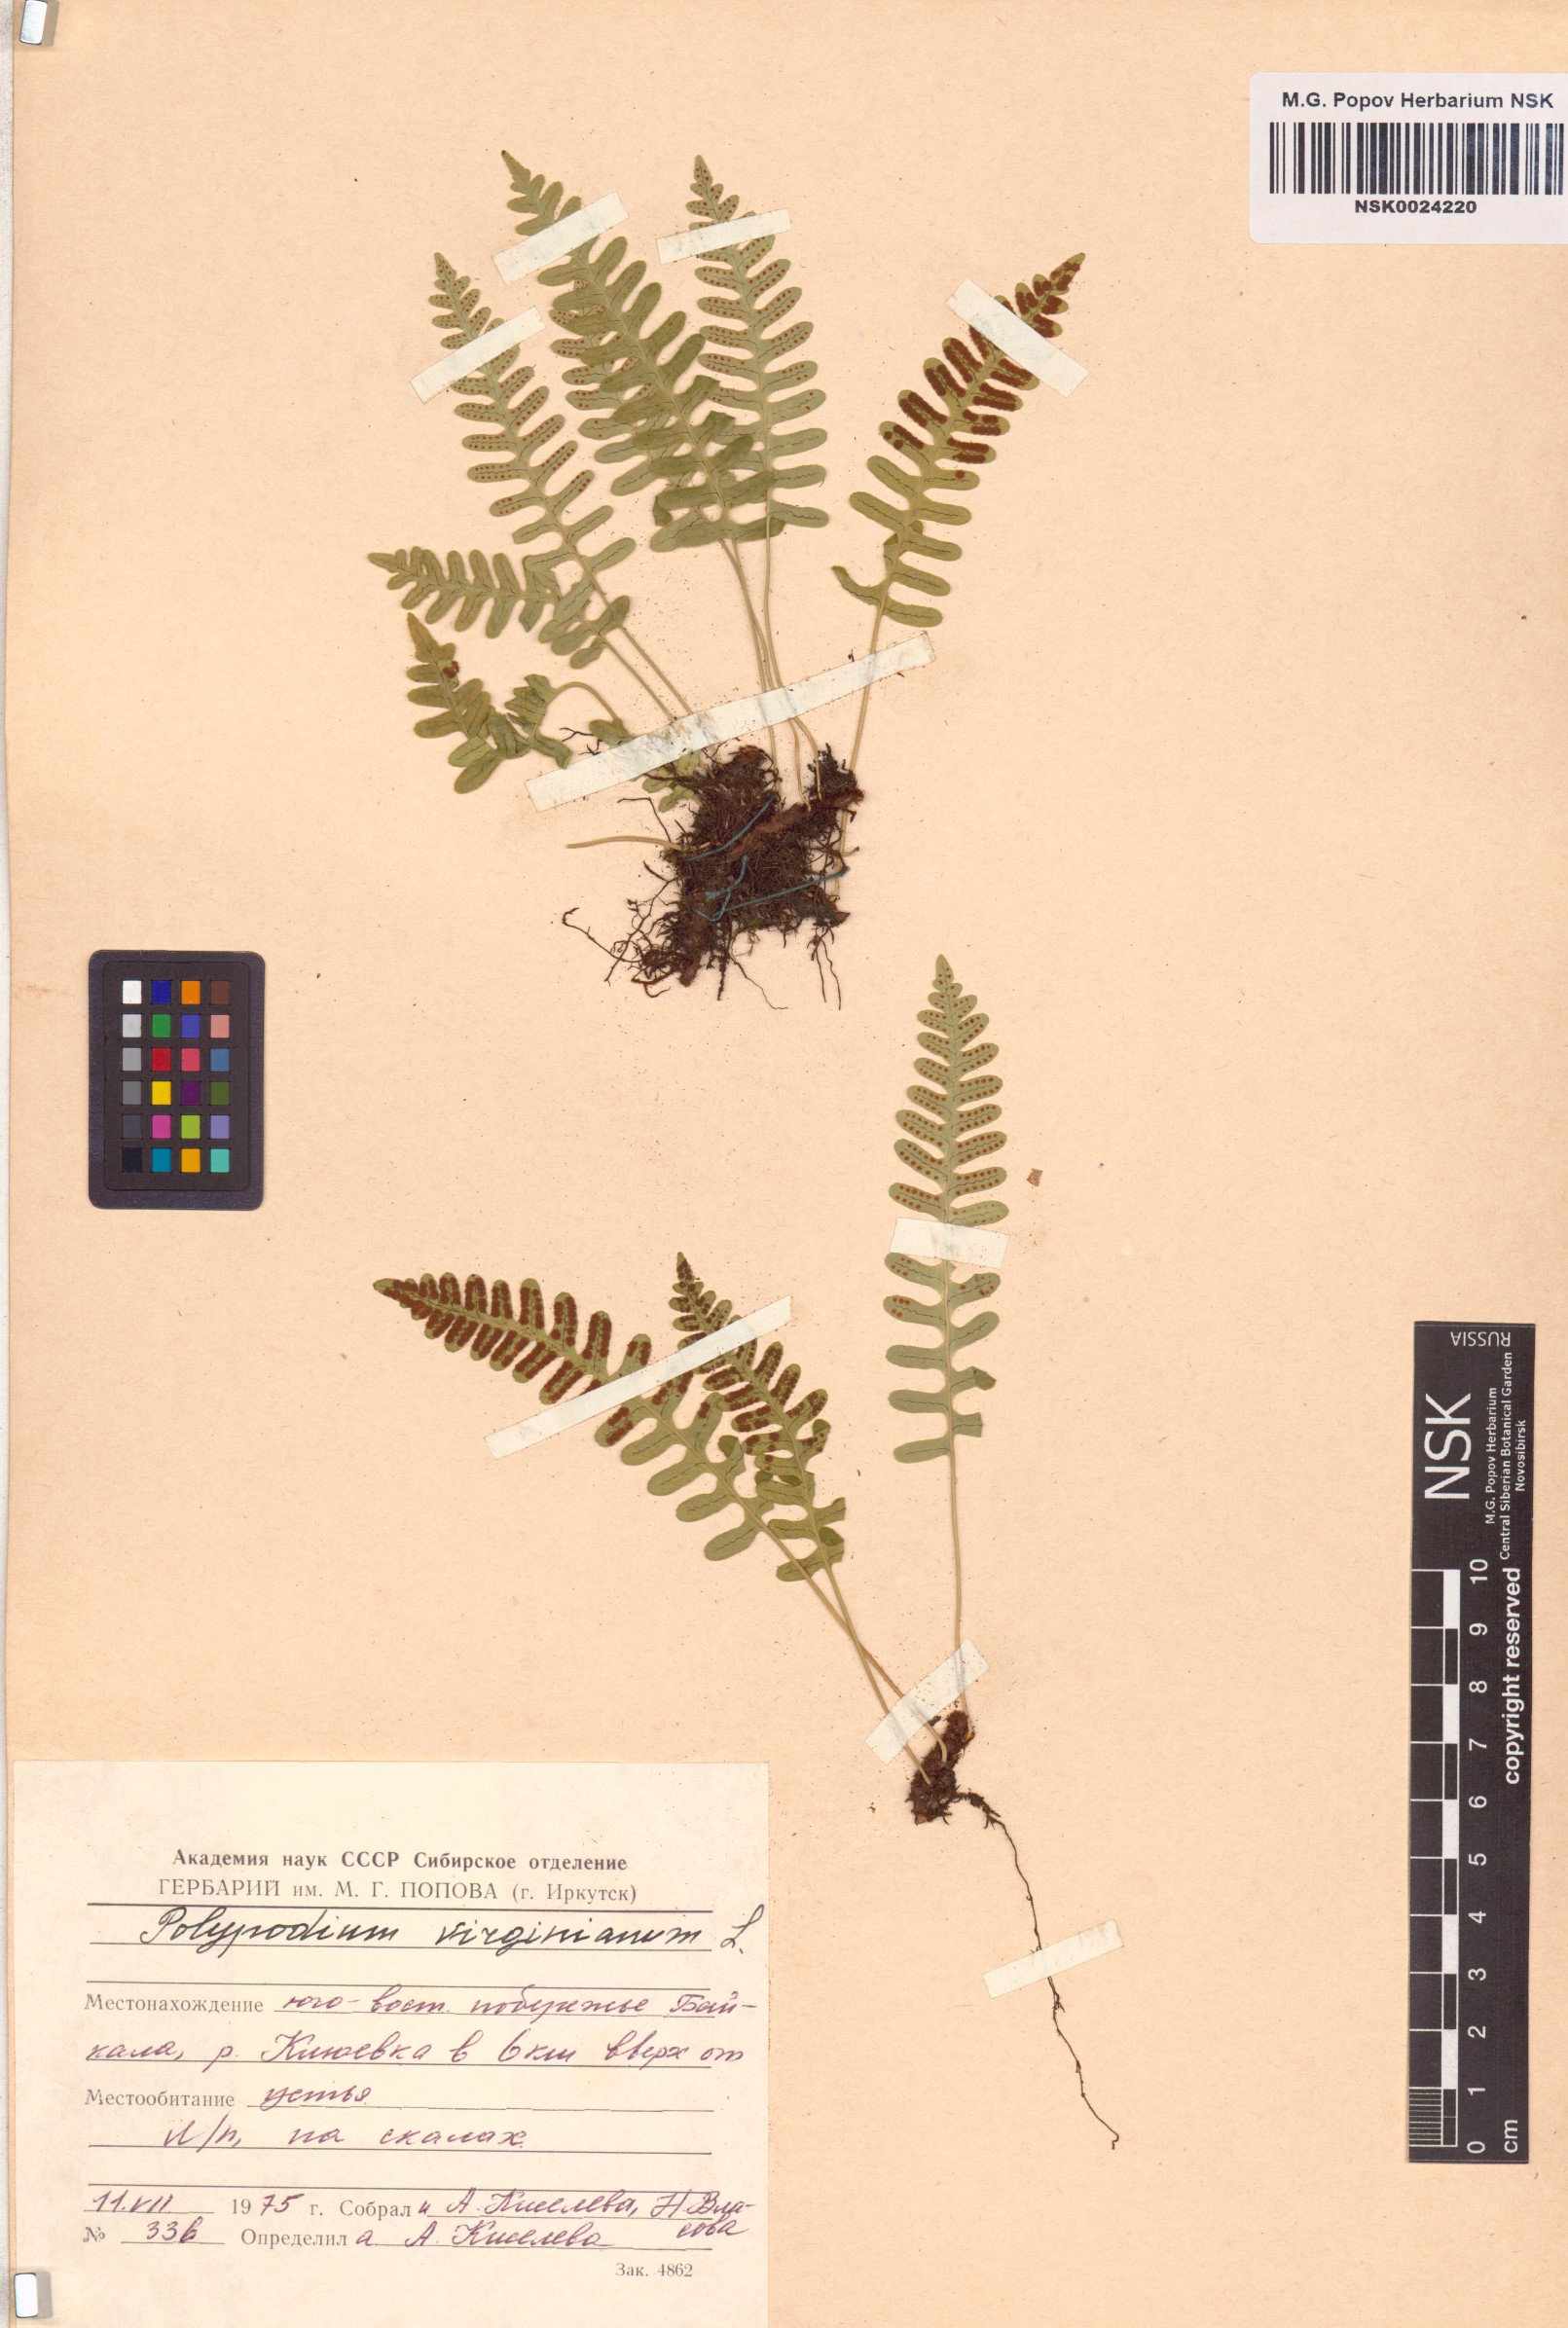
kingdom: Plantae
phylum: Tracheophyta
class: Polypodiopsida
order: Polypodiales
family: Polypodiaceae
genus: Polypodium
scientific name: Polypodium virginianum
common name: American wall fern
